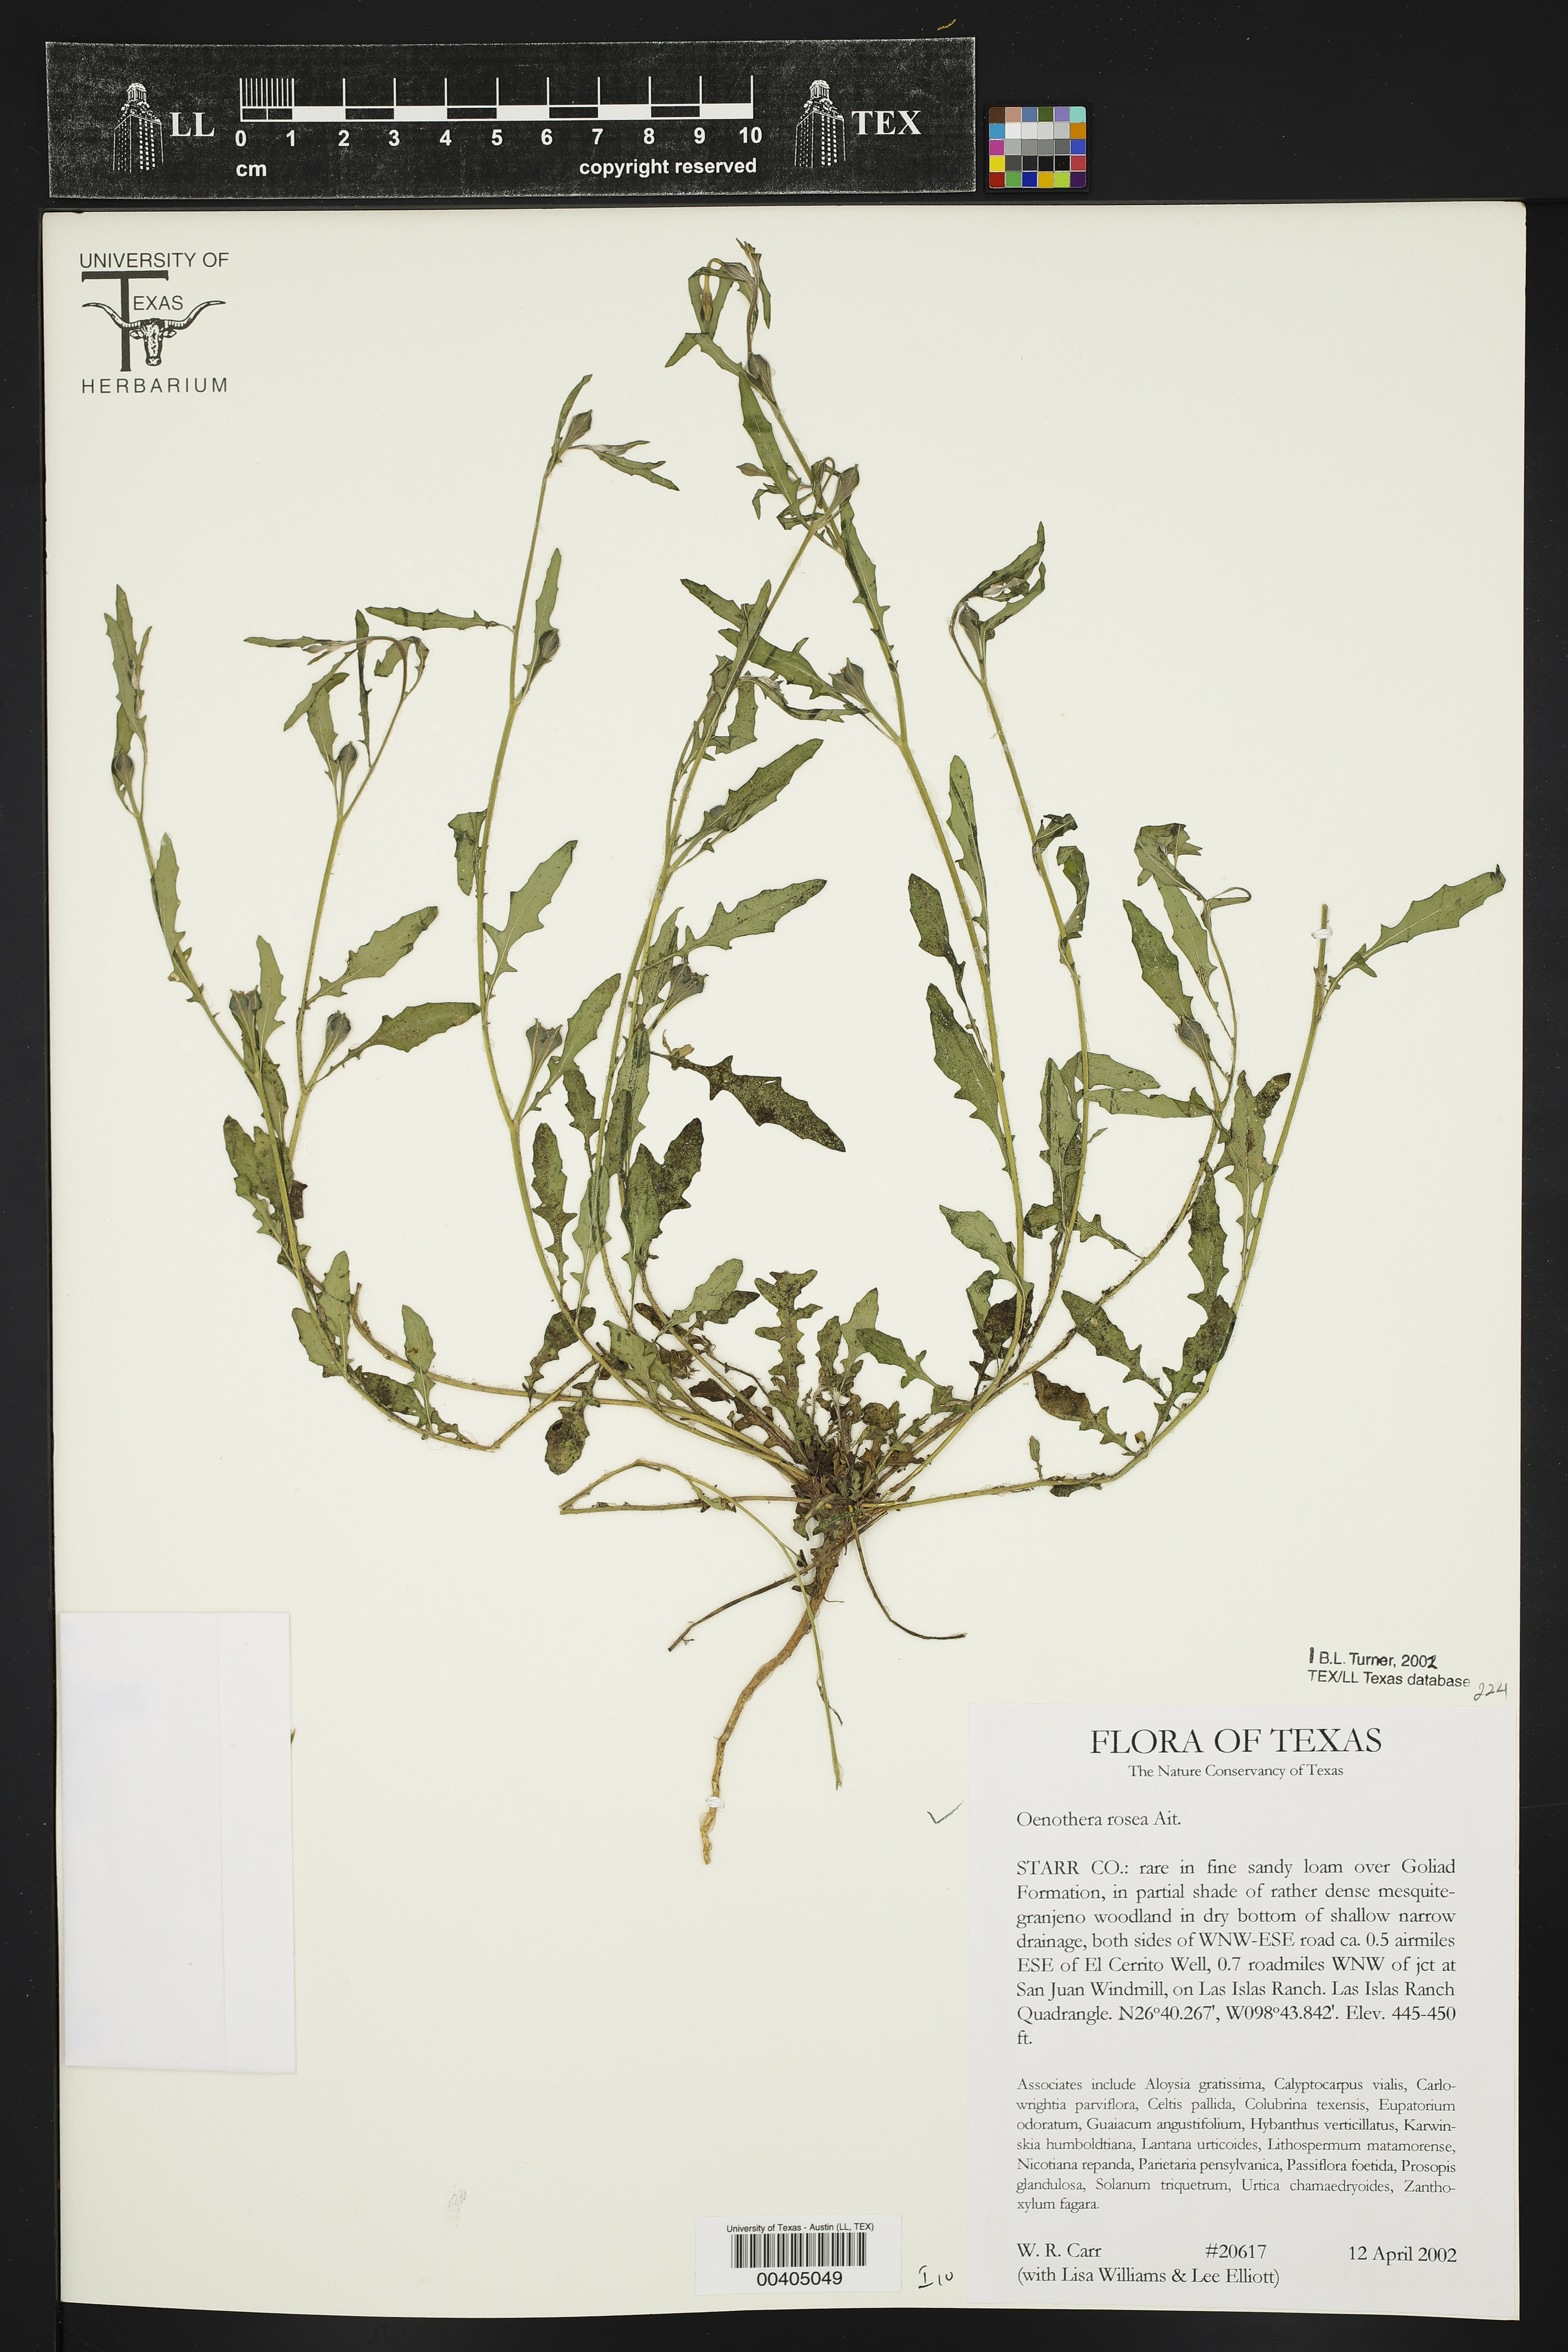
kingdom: Plantae
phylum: Tracheophyta
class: Magnoliopsida
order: Myrtales
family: Onagraceae
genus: Oenothera
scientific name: Oenothera rosea
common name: Rosy evening-primrose
